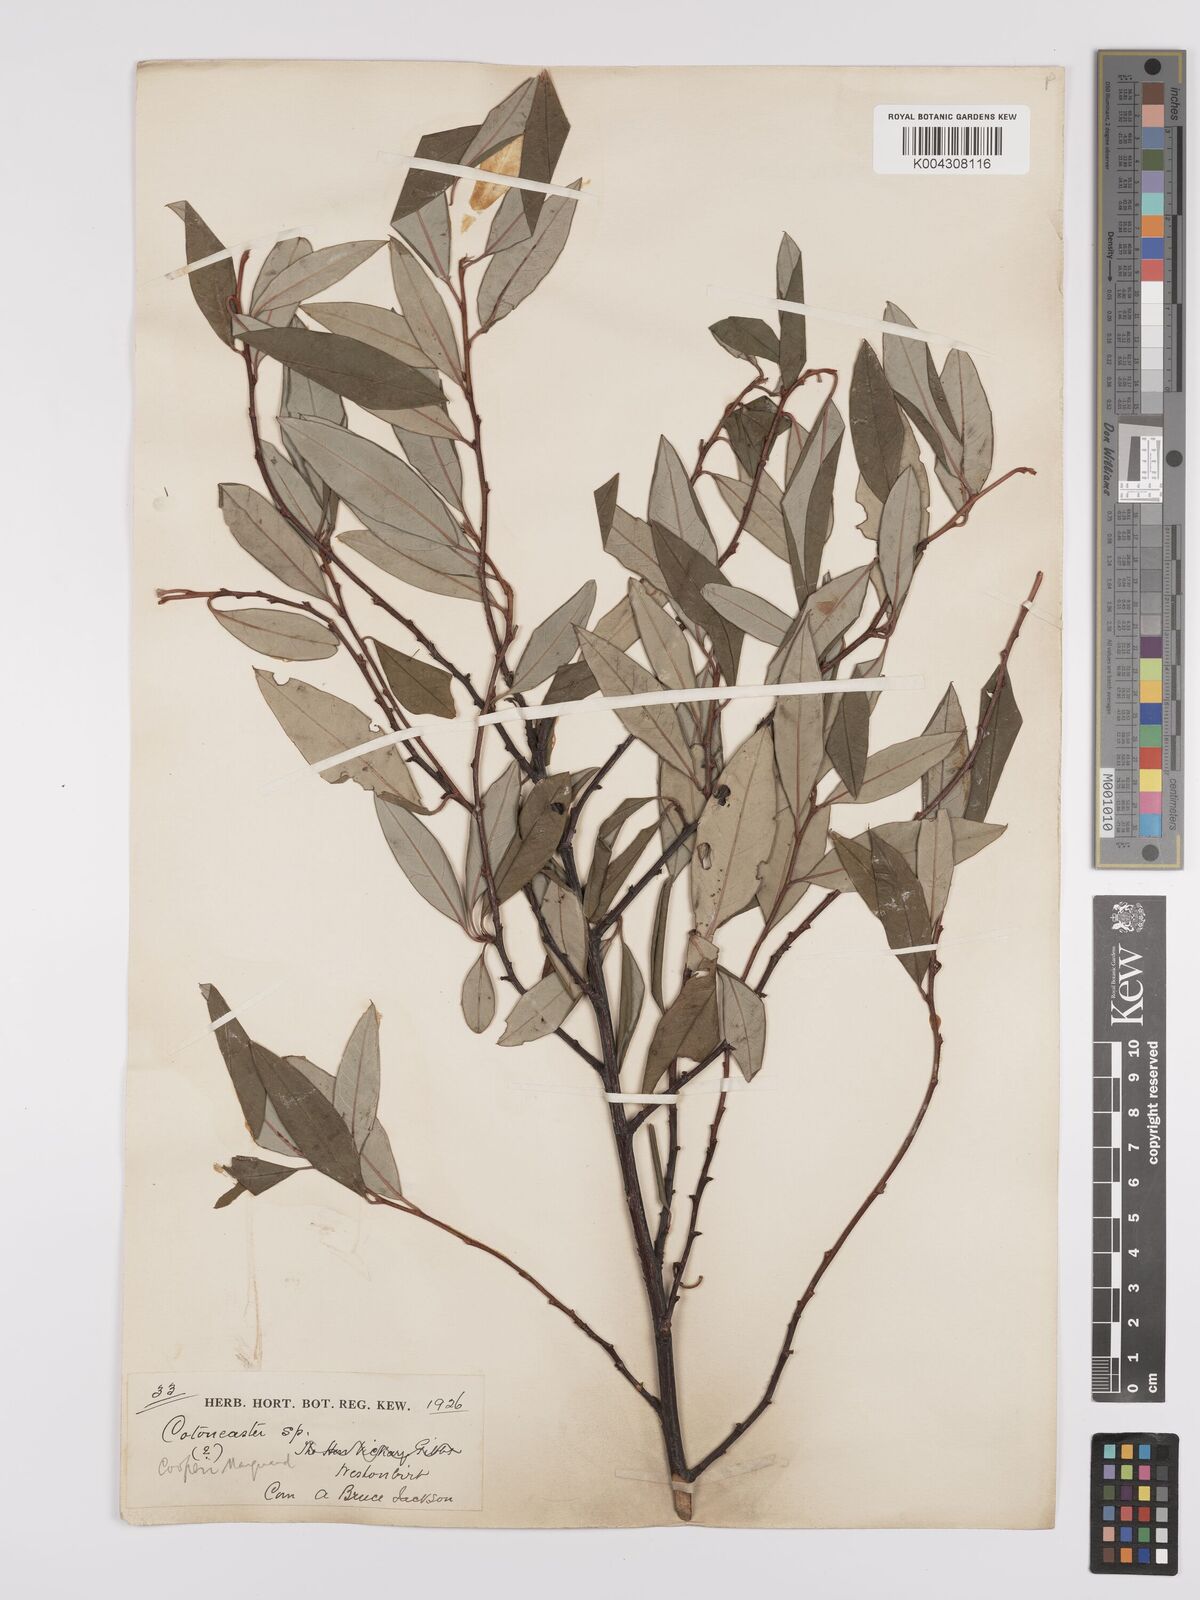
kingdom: Plantae
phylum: Tracheophyta
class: Magnoliopsida
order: Rosales
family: Rosaceae
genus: Cotoneaster
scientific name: Cotoneaster cooperi
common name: Cooper's cotoneaster
